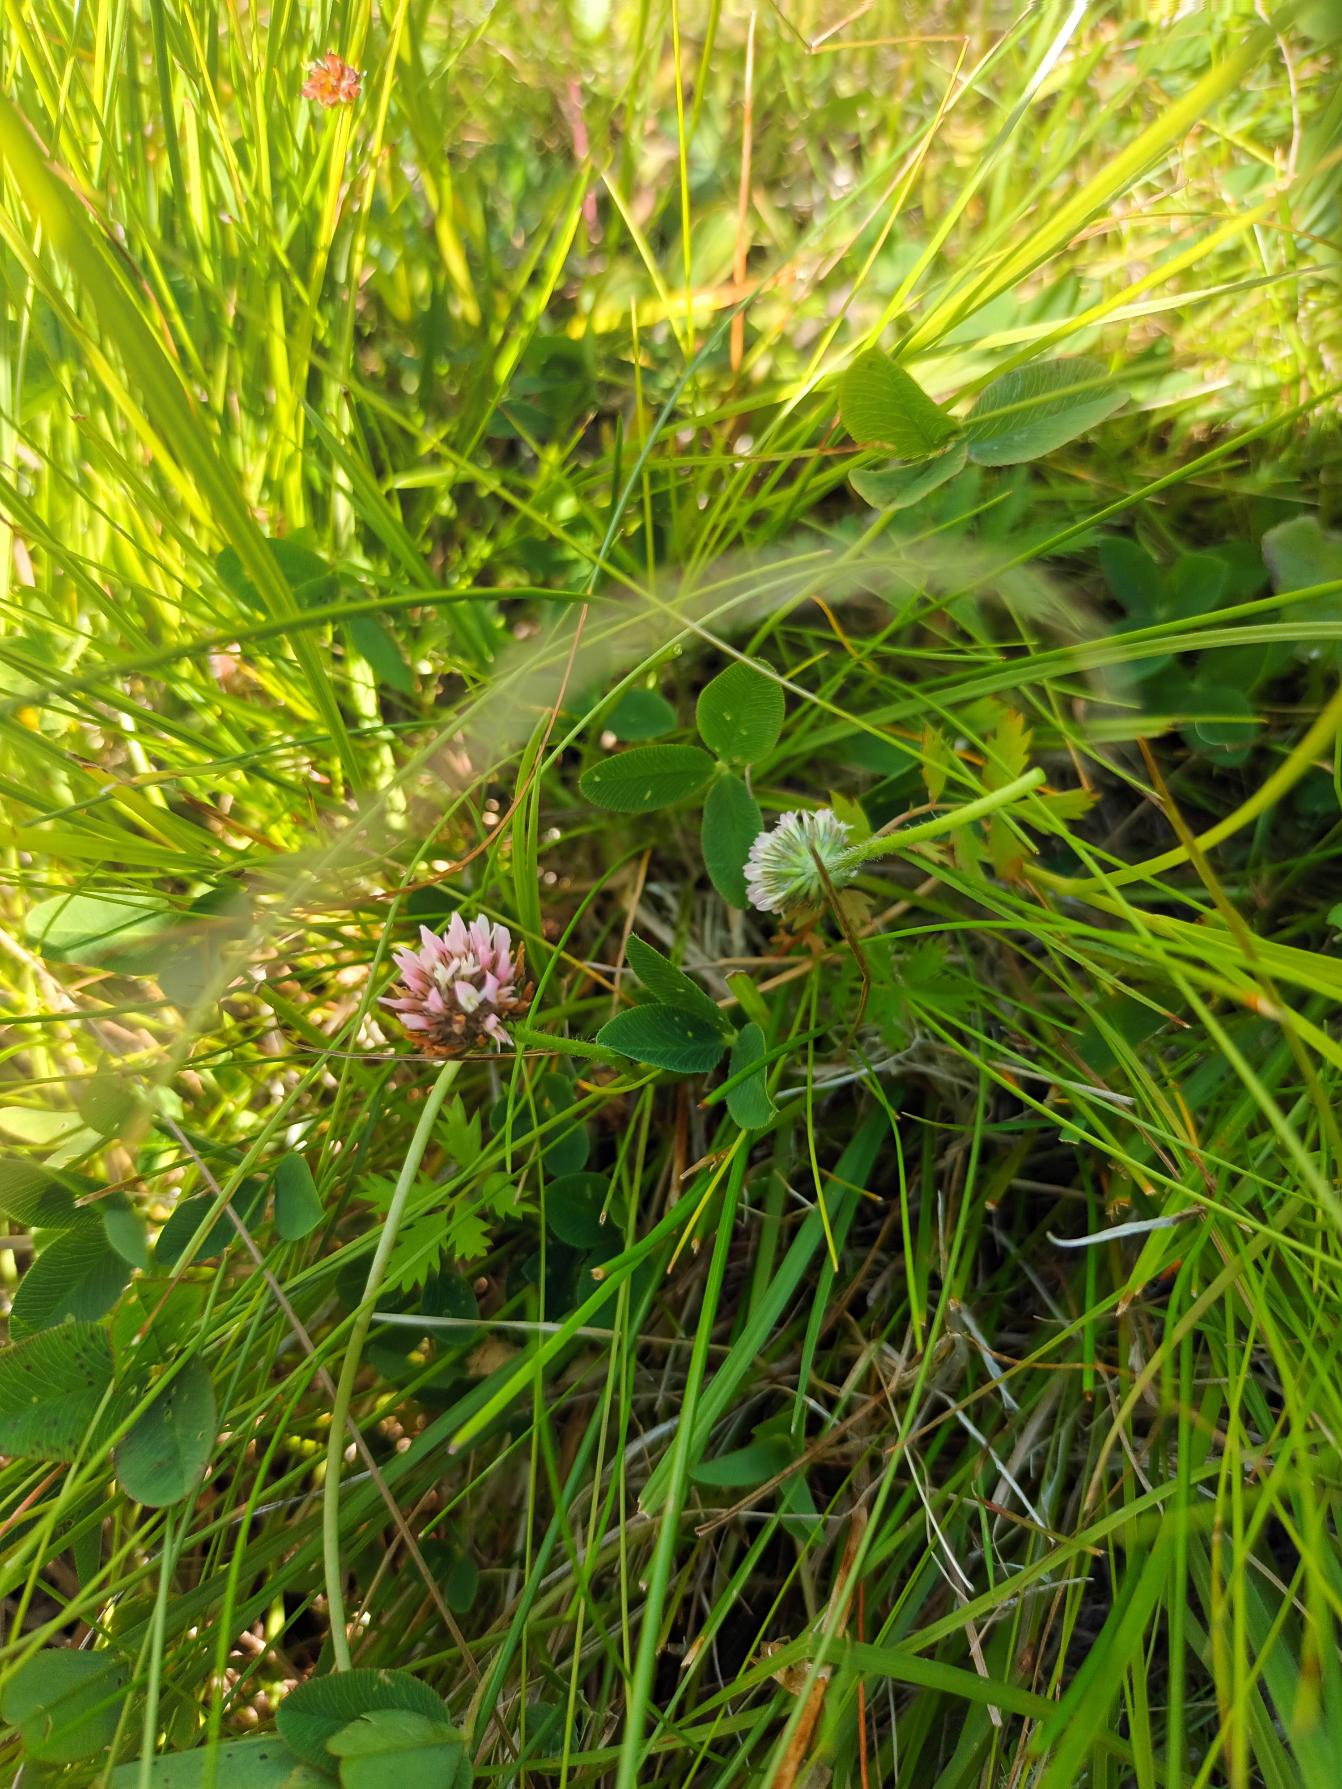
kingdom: Plantae
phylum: Tracheophyta
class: Magnoliopsida
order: Fabales
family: Fabaceae
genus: Trifolium
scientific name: Trifolium fragiferum
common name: Jordbær-kløver
